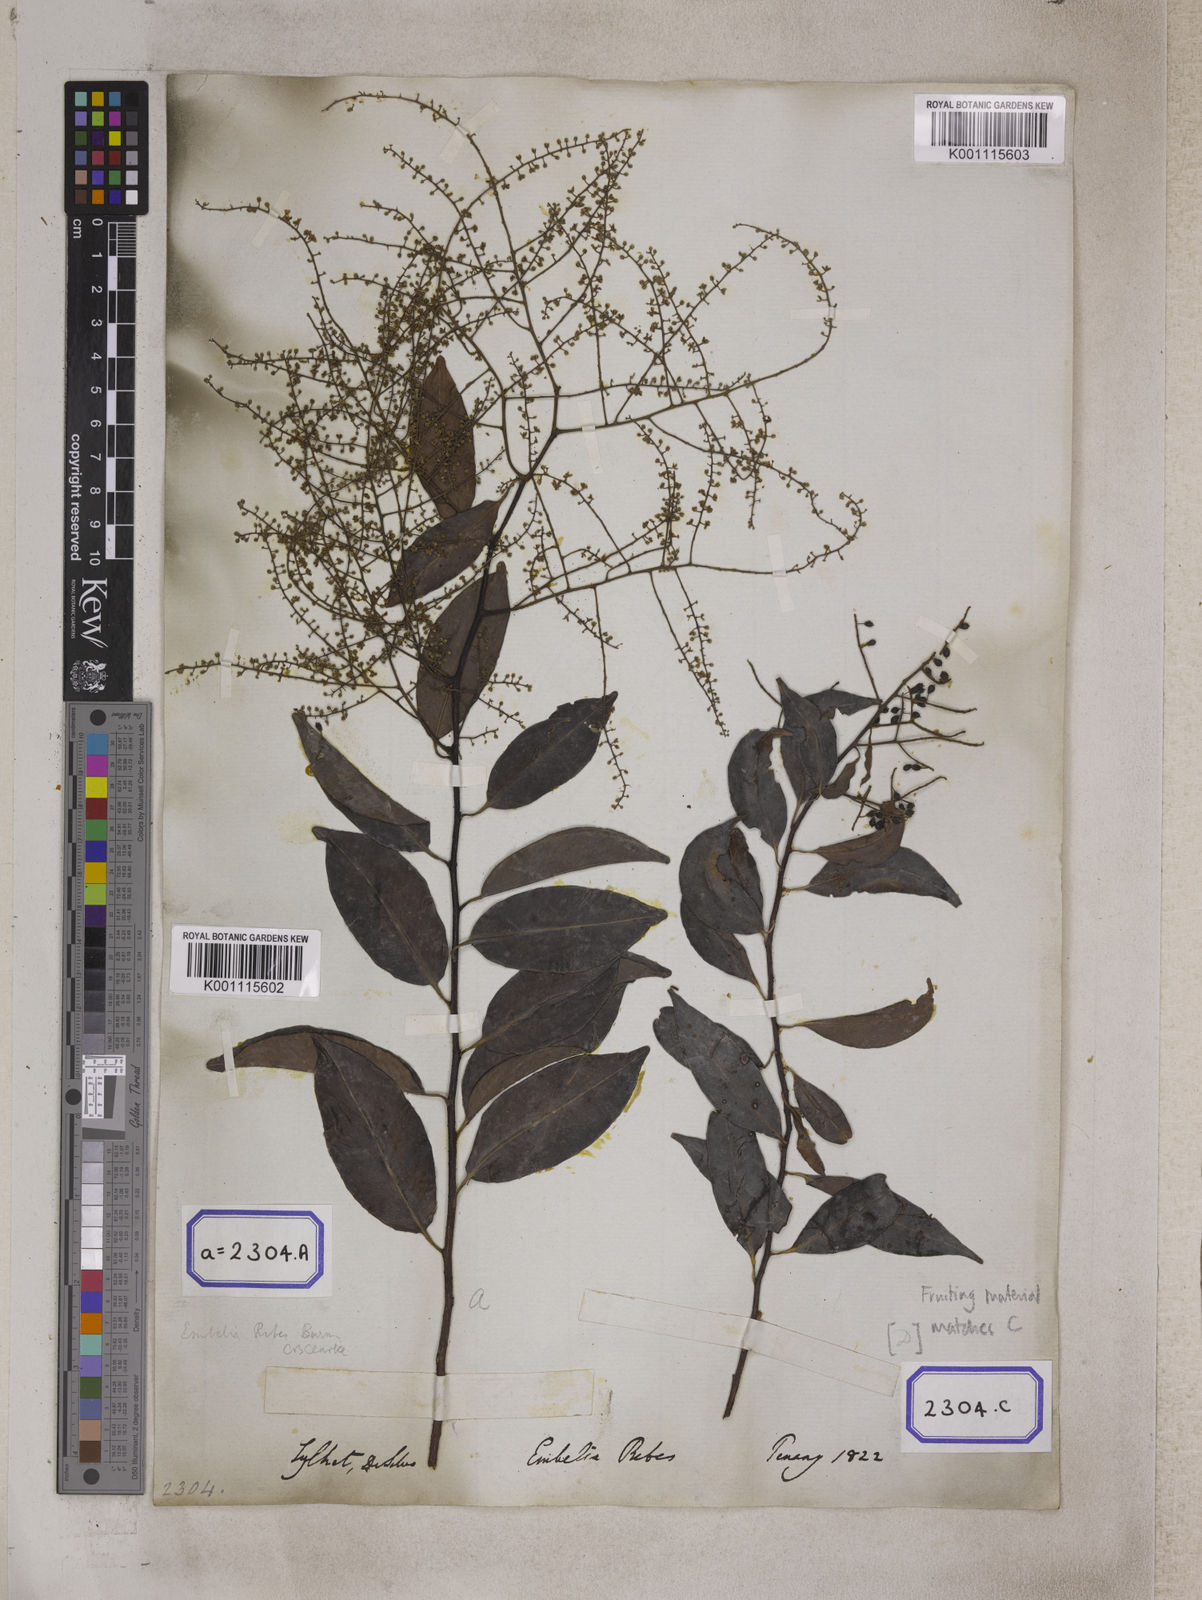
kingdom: Plantae
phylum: Tracheophyta
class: Magnoliopsida
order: Ericales
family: Primulaceae
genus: Embelia
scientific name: Embelia ribes
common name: Vidanga
